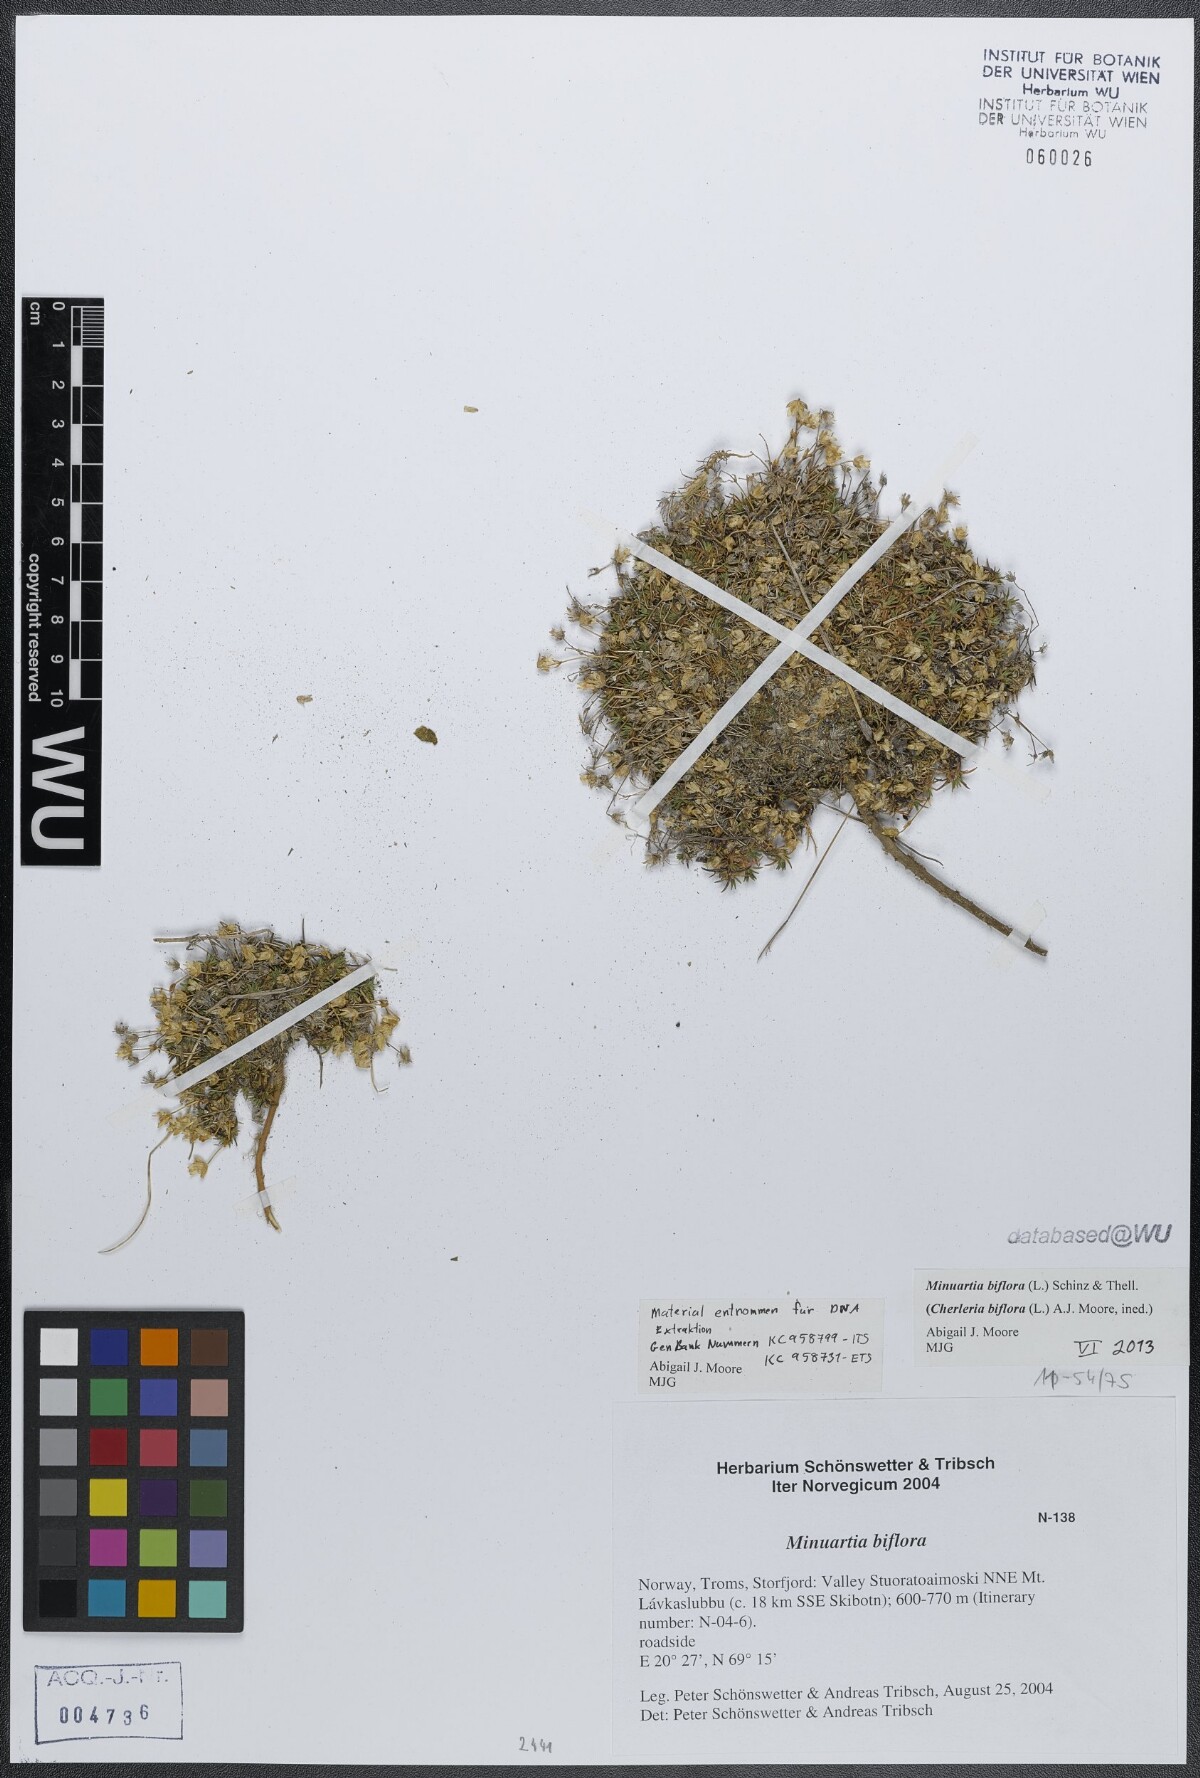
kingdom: Plantae
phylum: Tracheophyta
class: Magnoliopsida
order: Caryophyllales
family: Caryophyllaceae
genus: Cherleria
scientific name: Cherleria biflora
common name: Mountain sandwort
